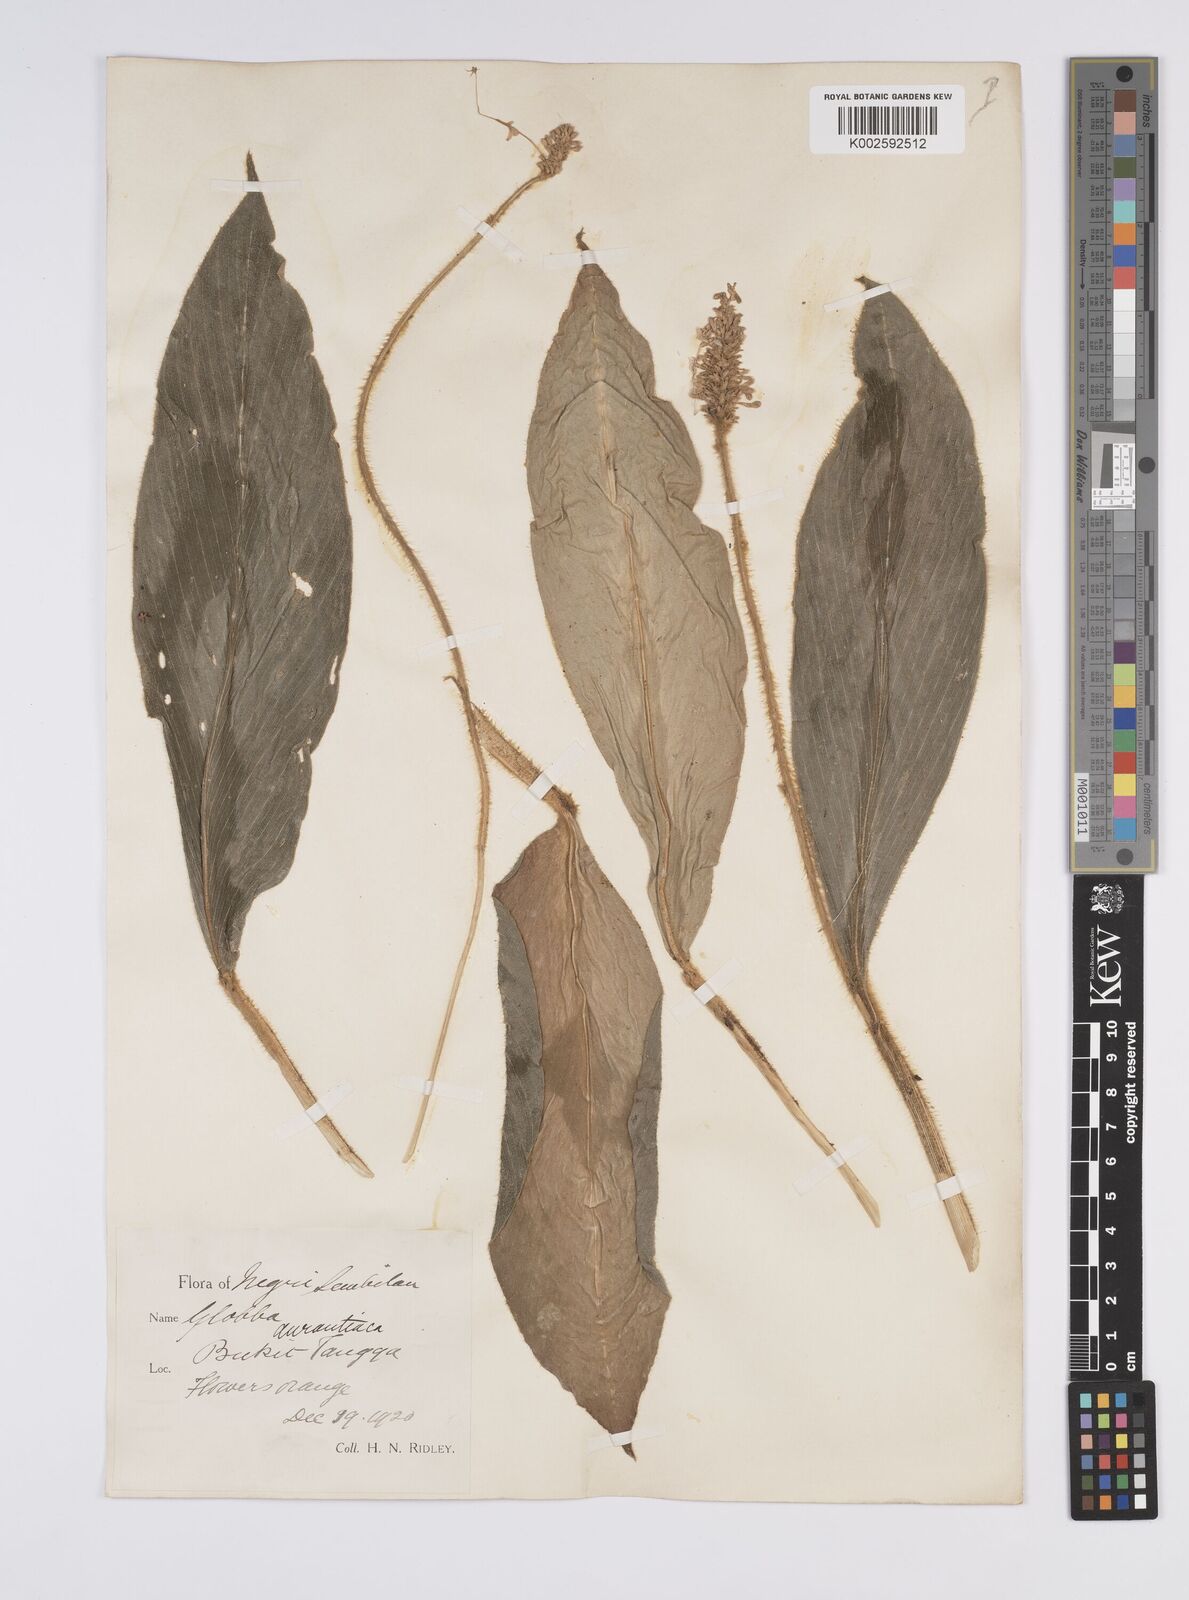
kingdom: Plantae
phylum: Tracheophyta
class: Liliopsida
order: Zingiberales
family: Zingiberaceae
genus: Globba
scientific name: Globba aurantiaca
